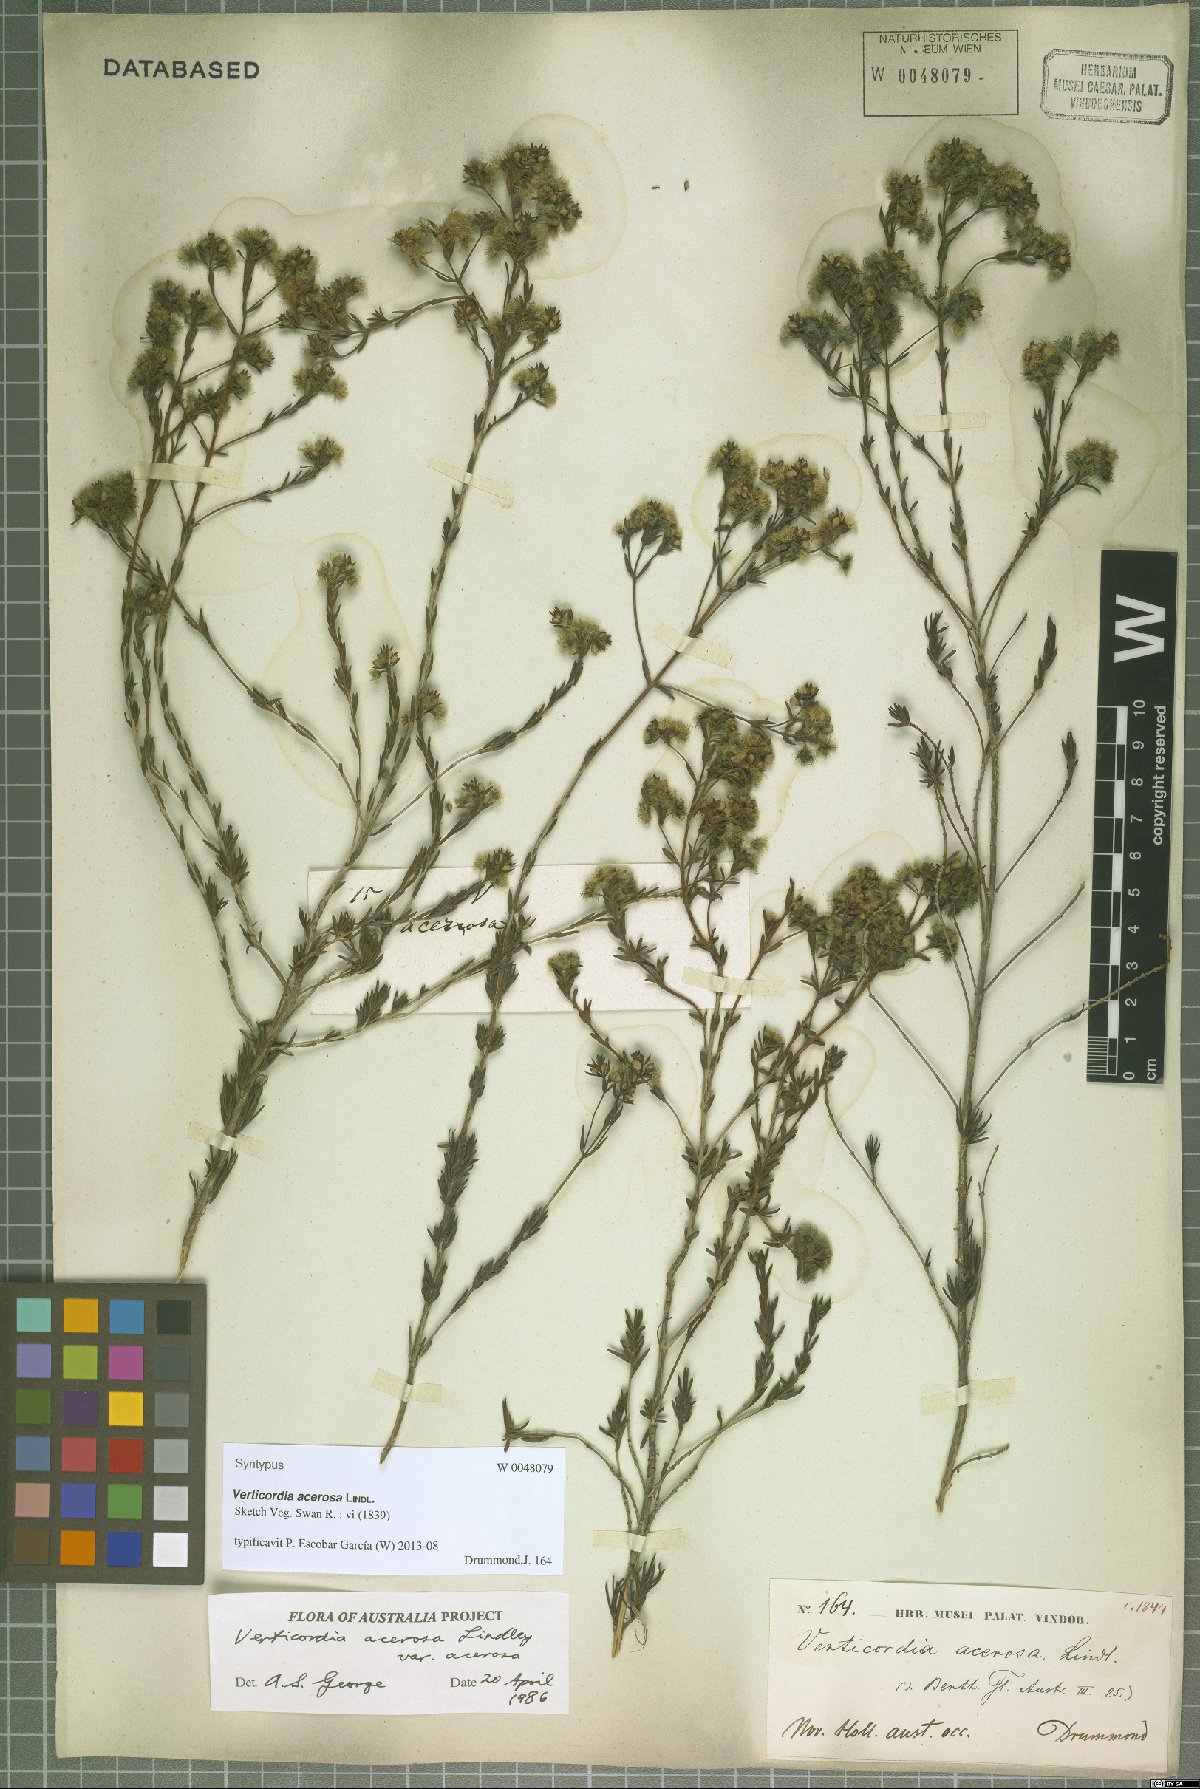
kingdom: Plantae
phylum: Tracheophyta
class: Magnoliopsida
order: Myrtales
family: Myrtaceae
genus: Verticordia
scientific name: Verticordia acerosa
